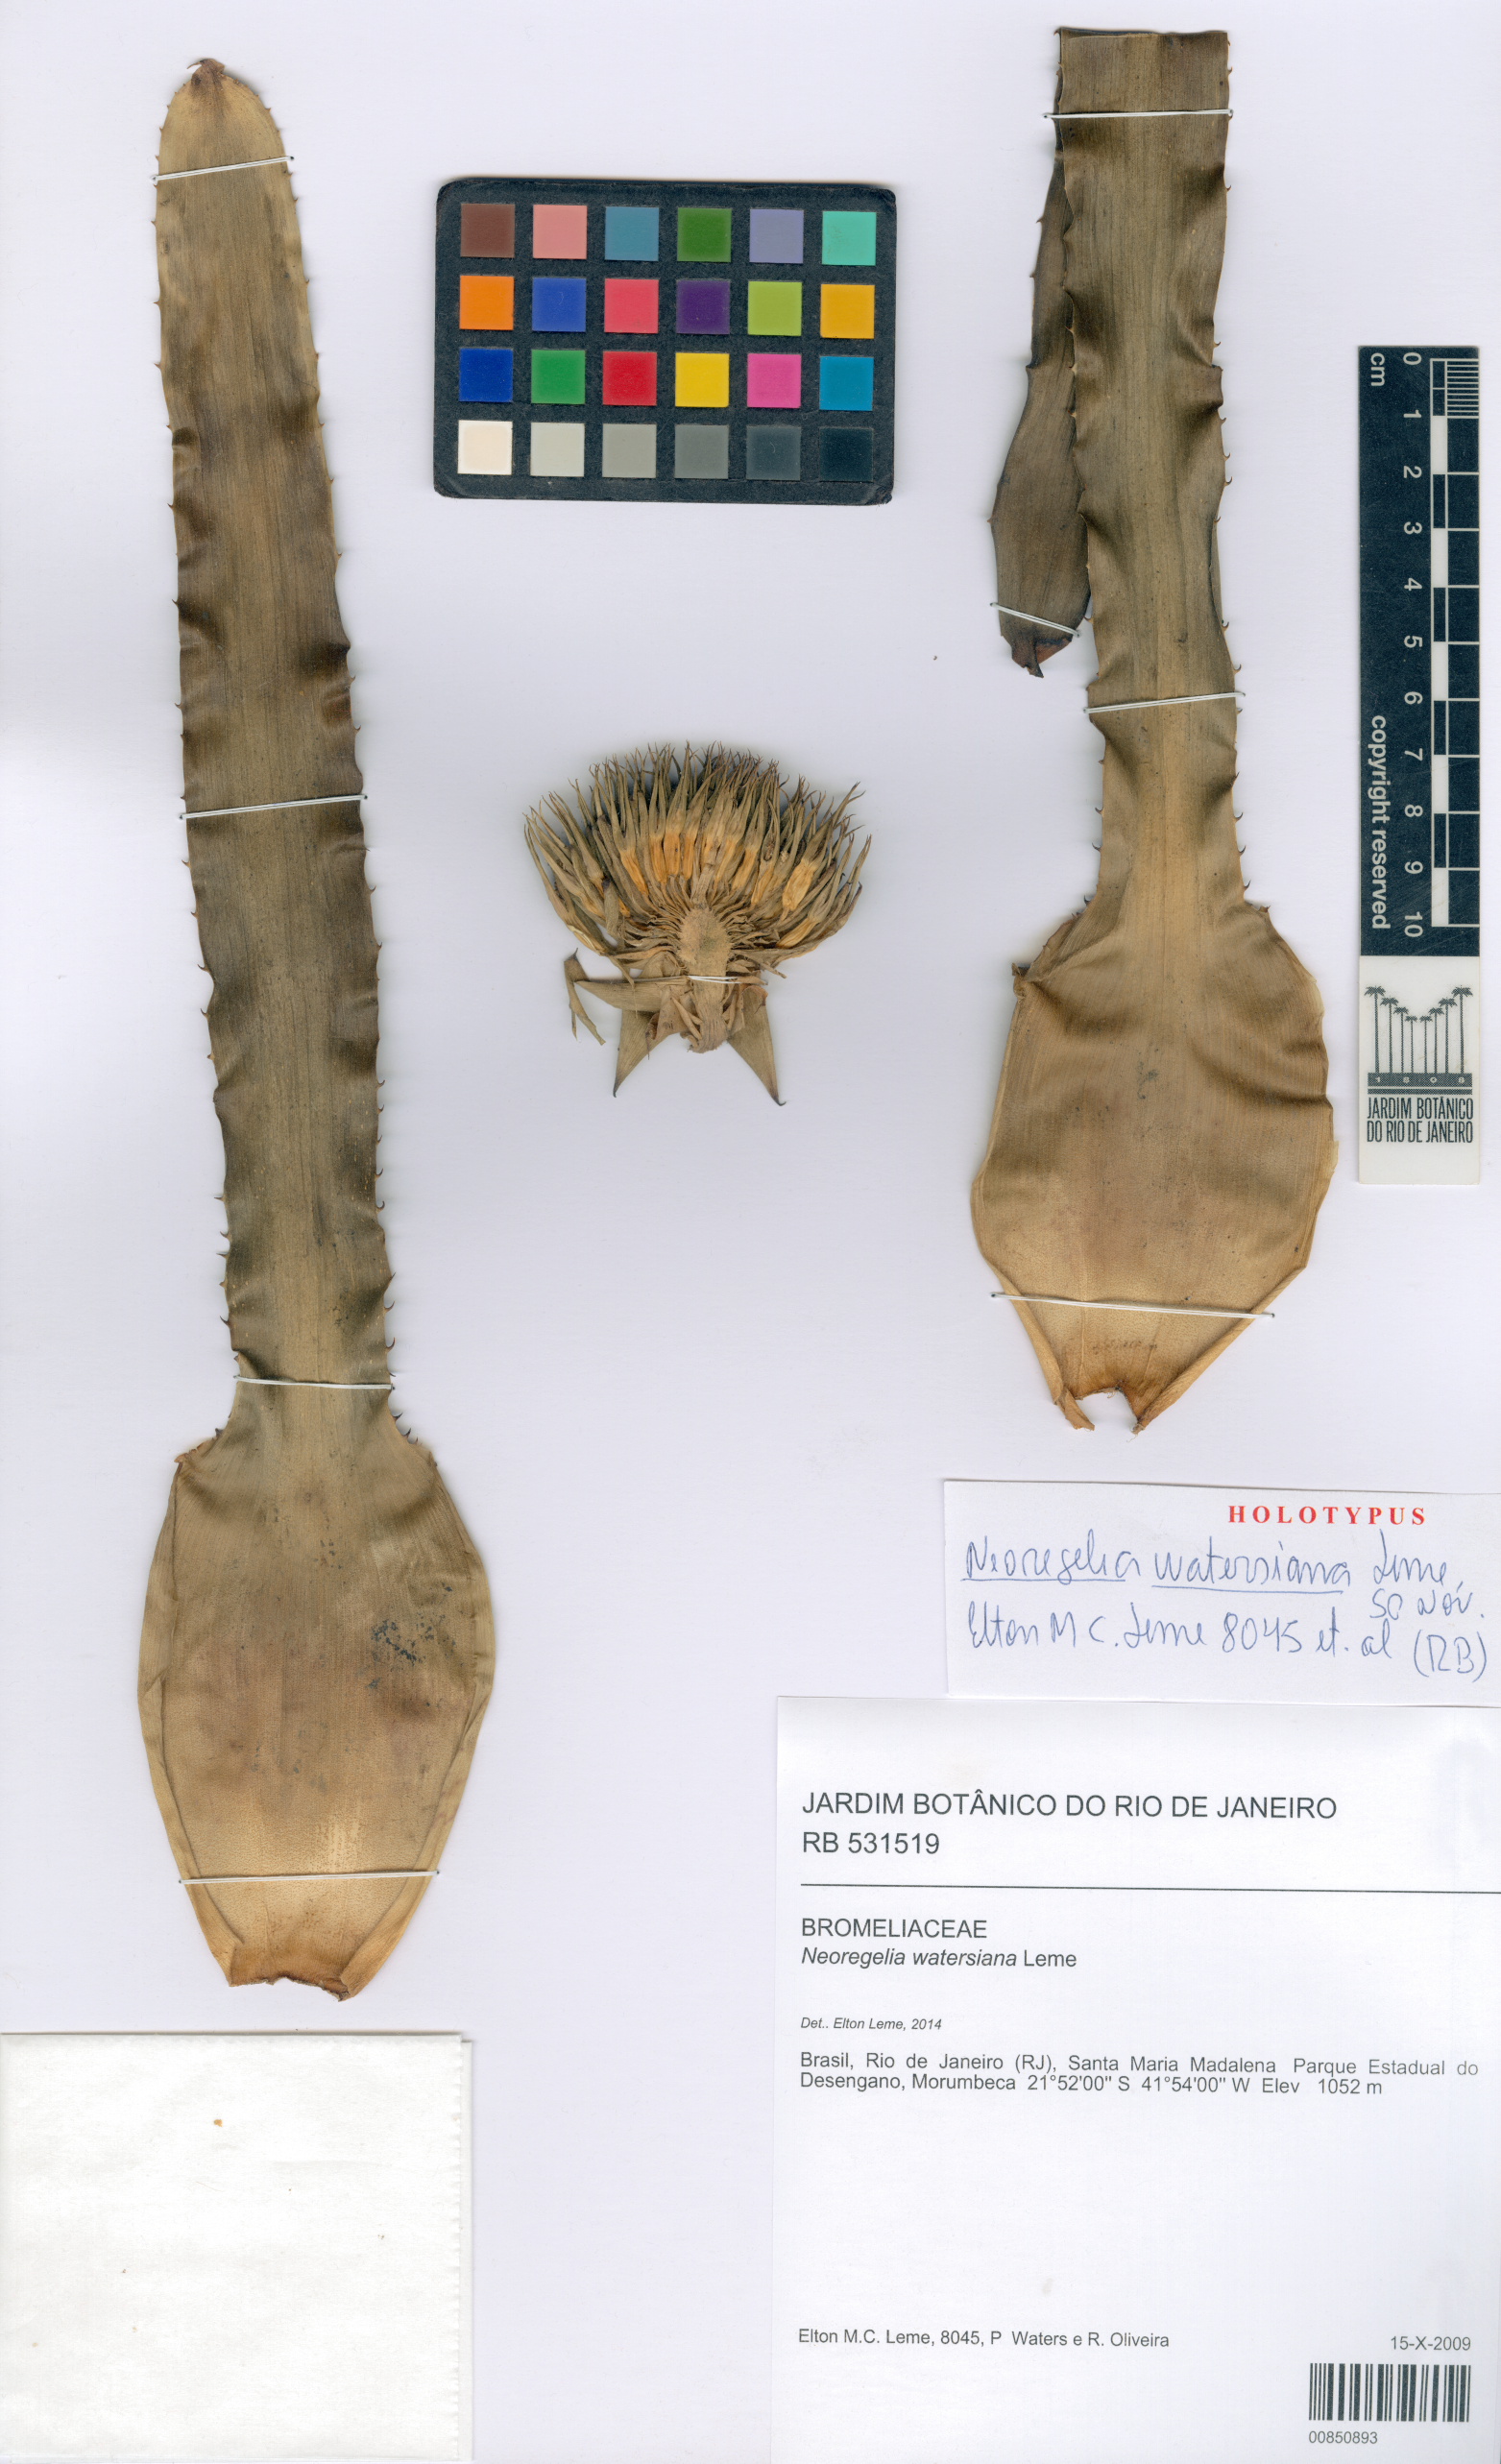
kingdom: Plantae
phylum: Tracheophyta
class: Liliopsida
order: Poales
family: Bromeliaceae
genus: Neoregelia
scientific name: Neoregelia watersiana
